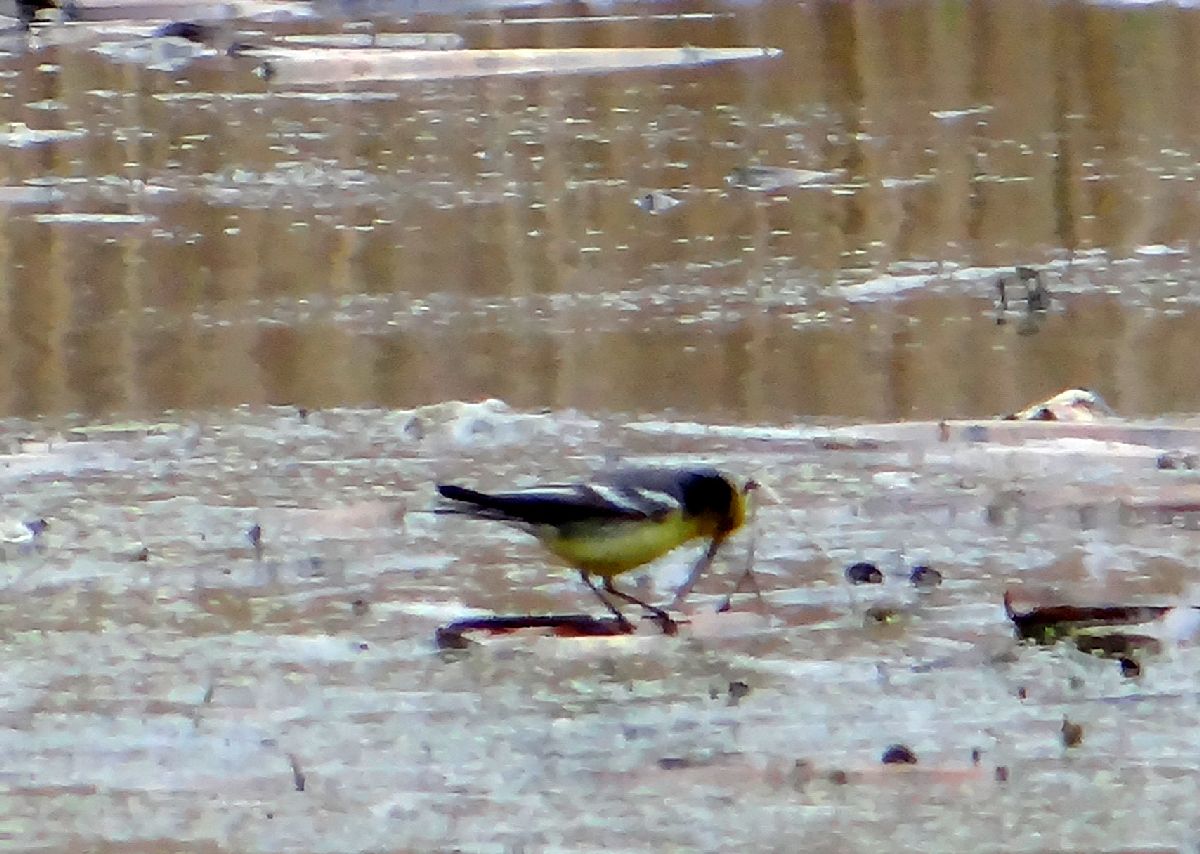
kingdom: Animalia
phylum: Chordata
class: Aves
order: Passeriformes
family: Motacillidae
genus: Motacilla
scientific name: Motacilla citreola
